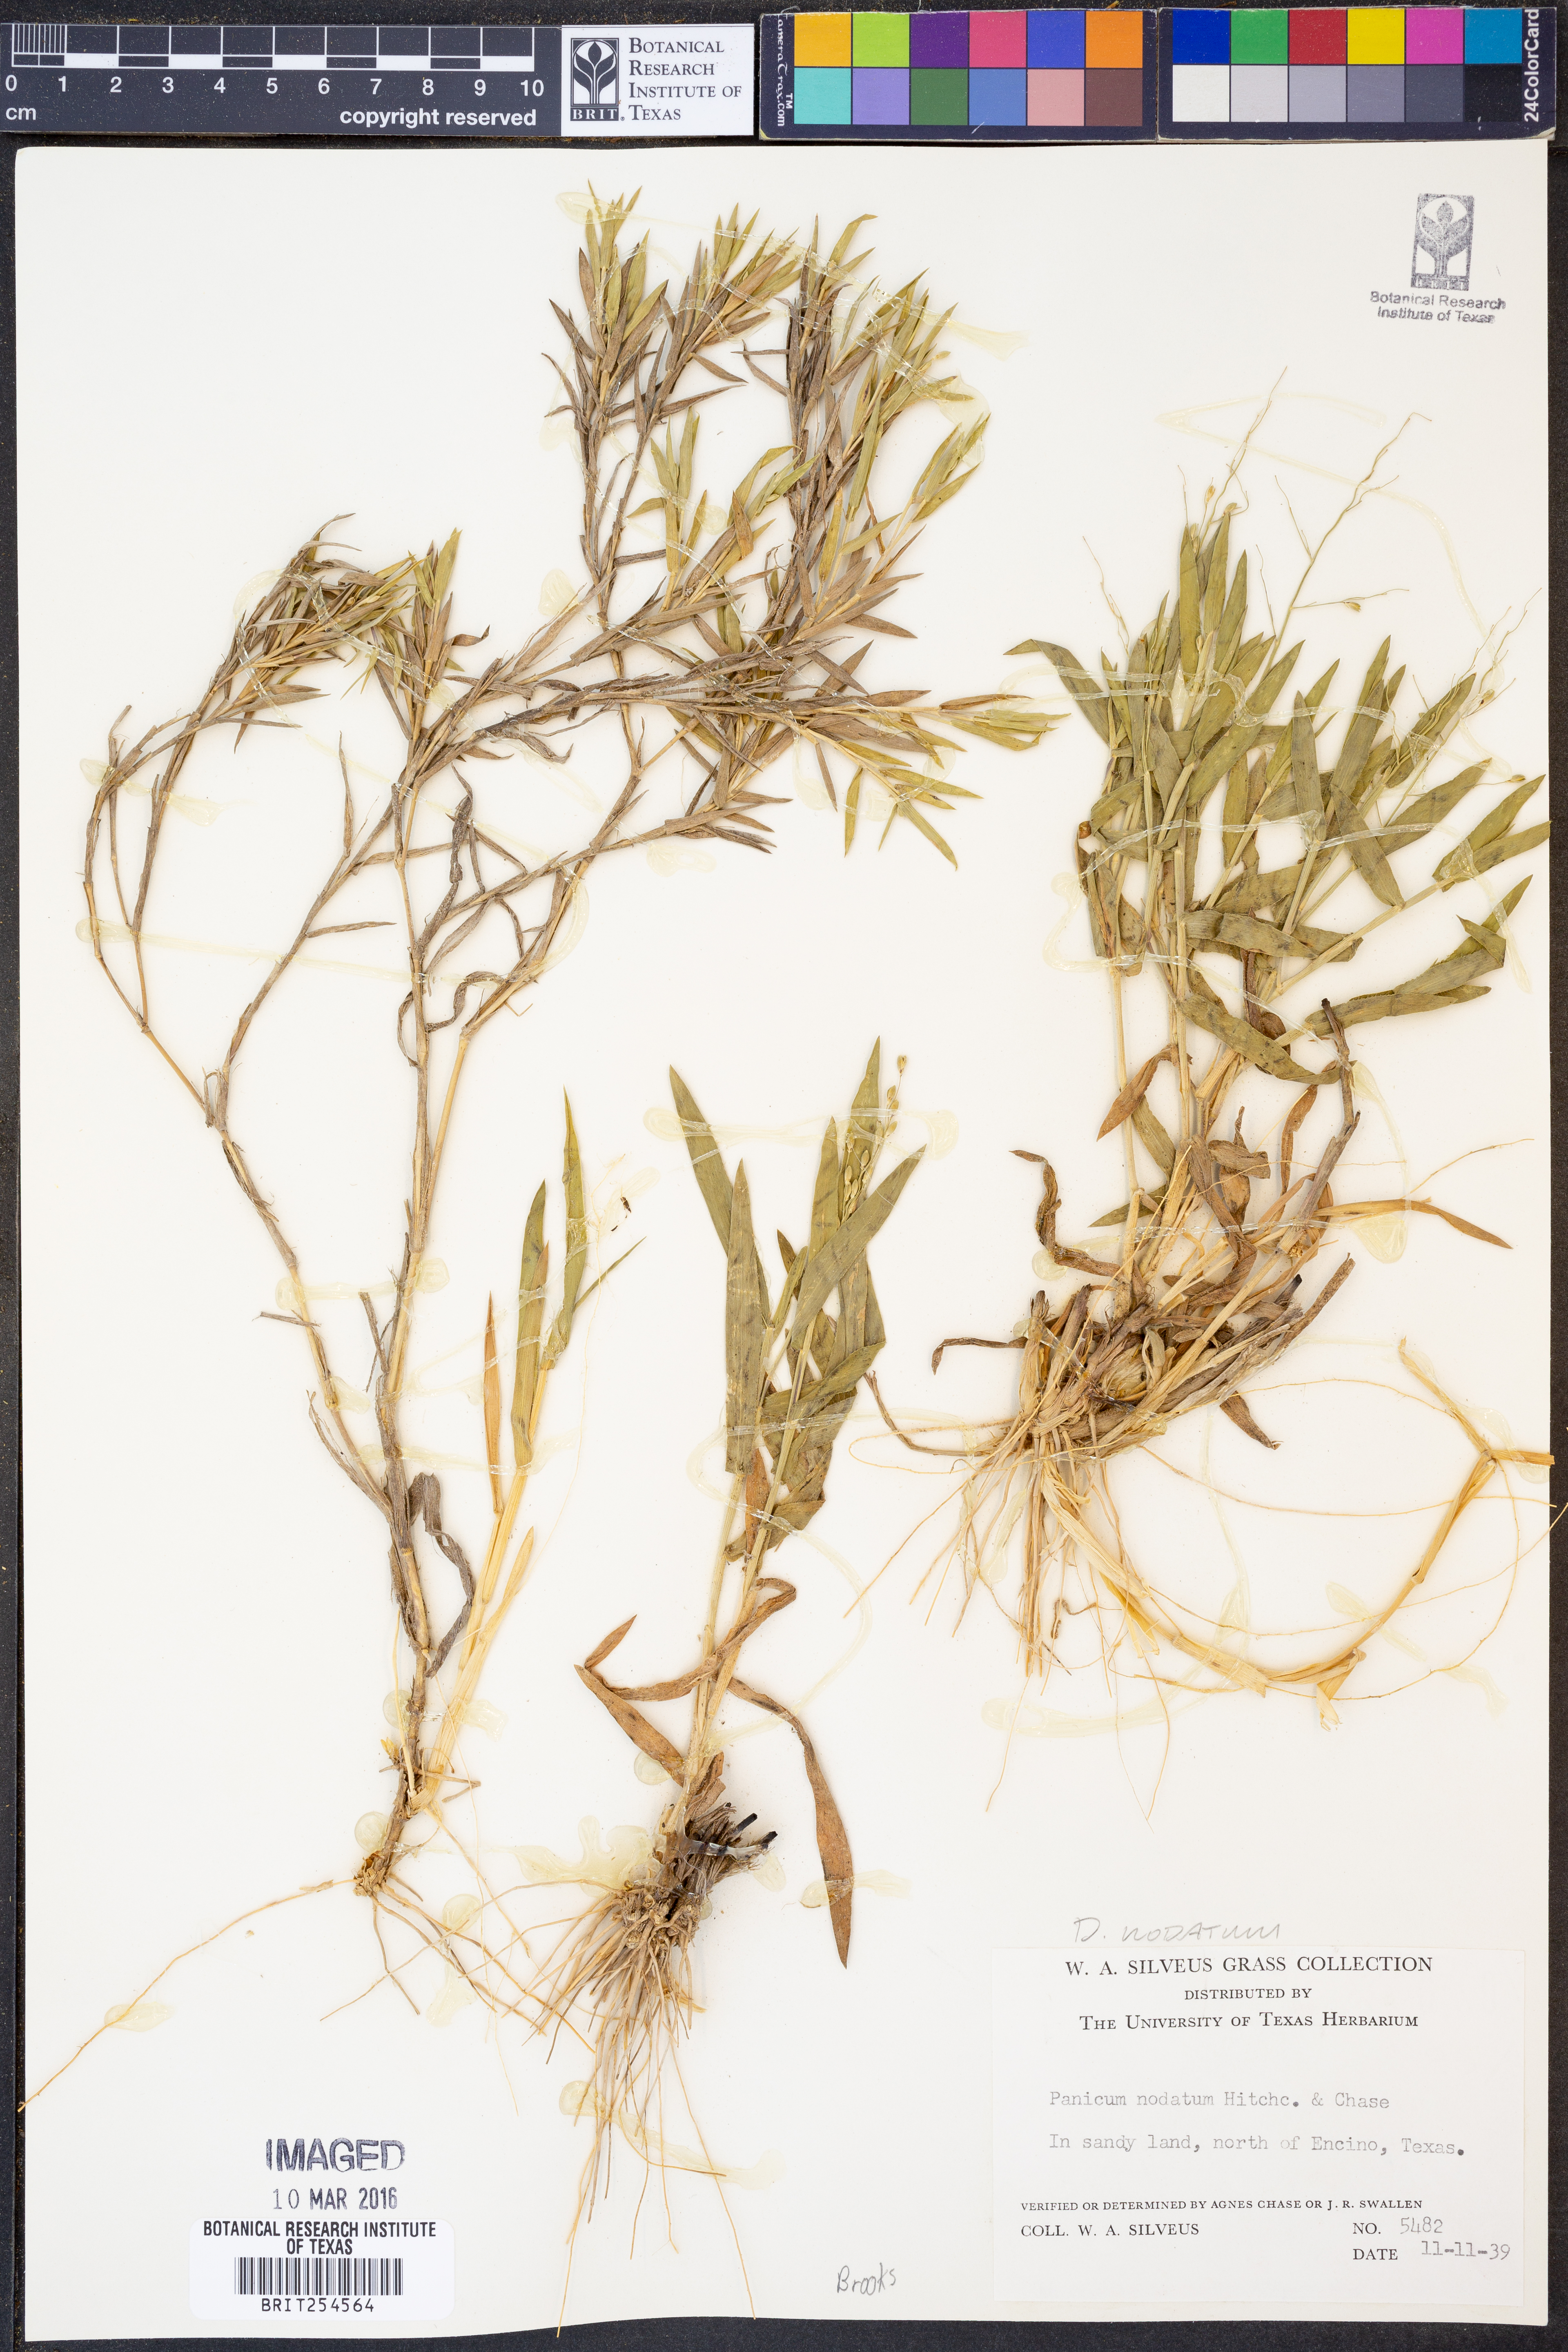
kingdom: Plantae
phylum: Tracheophyta
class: Liliopsida
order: Poales
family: Poaceae
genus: Dichanthelium
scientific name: Dichanthelium nodatum
